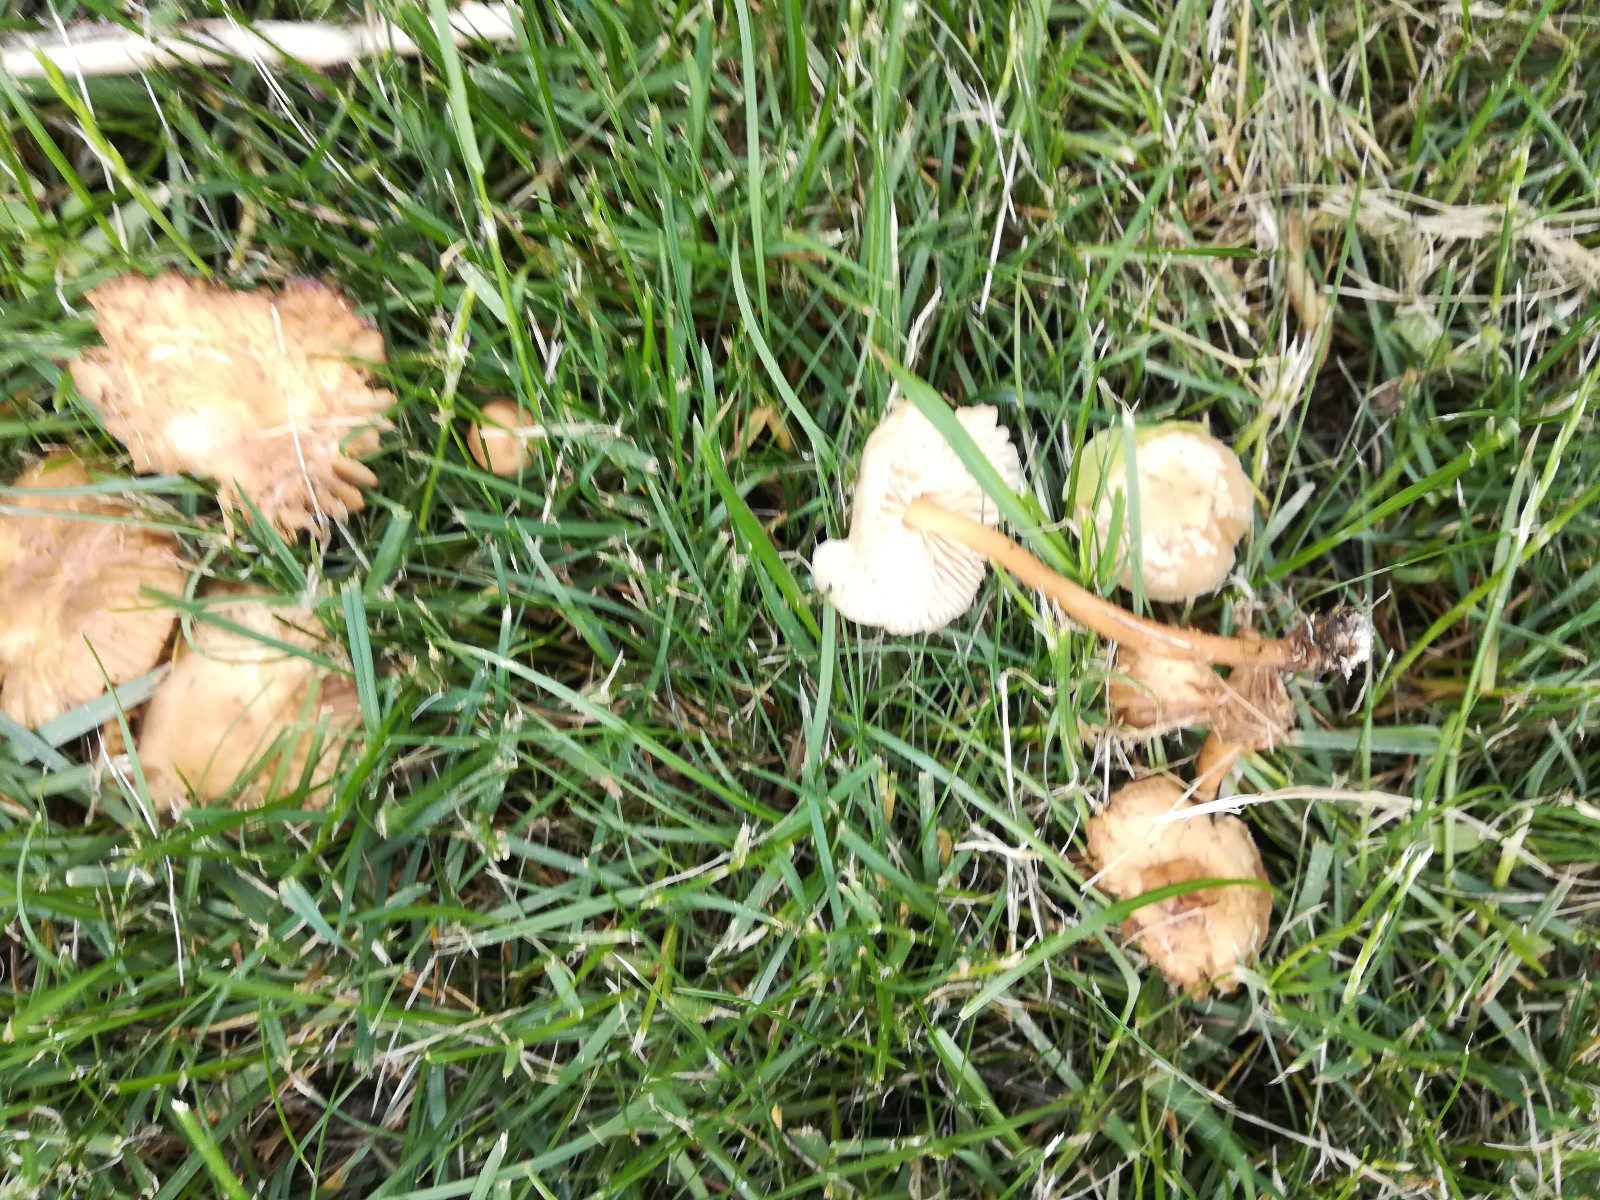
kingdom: Fungi
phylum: Basidiomycota
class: Agaricomycetes
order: Agaricales
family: Marasmiaceae
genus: Marasmius
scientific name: Marasmius oreades
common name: elledans-bruskhat
